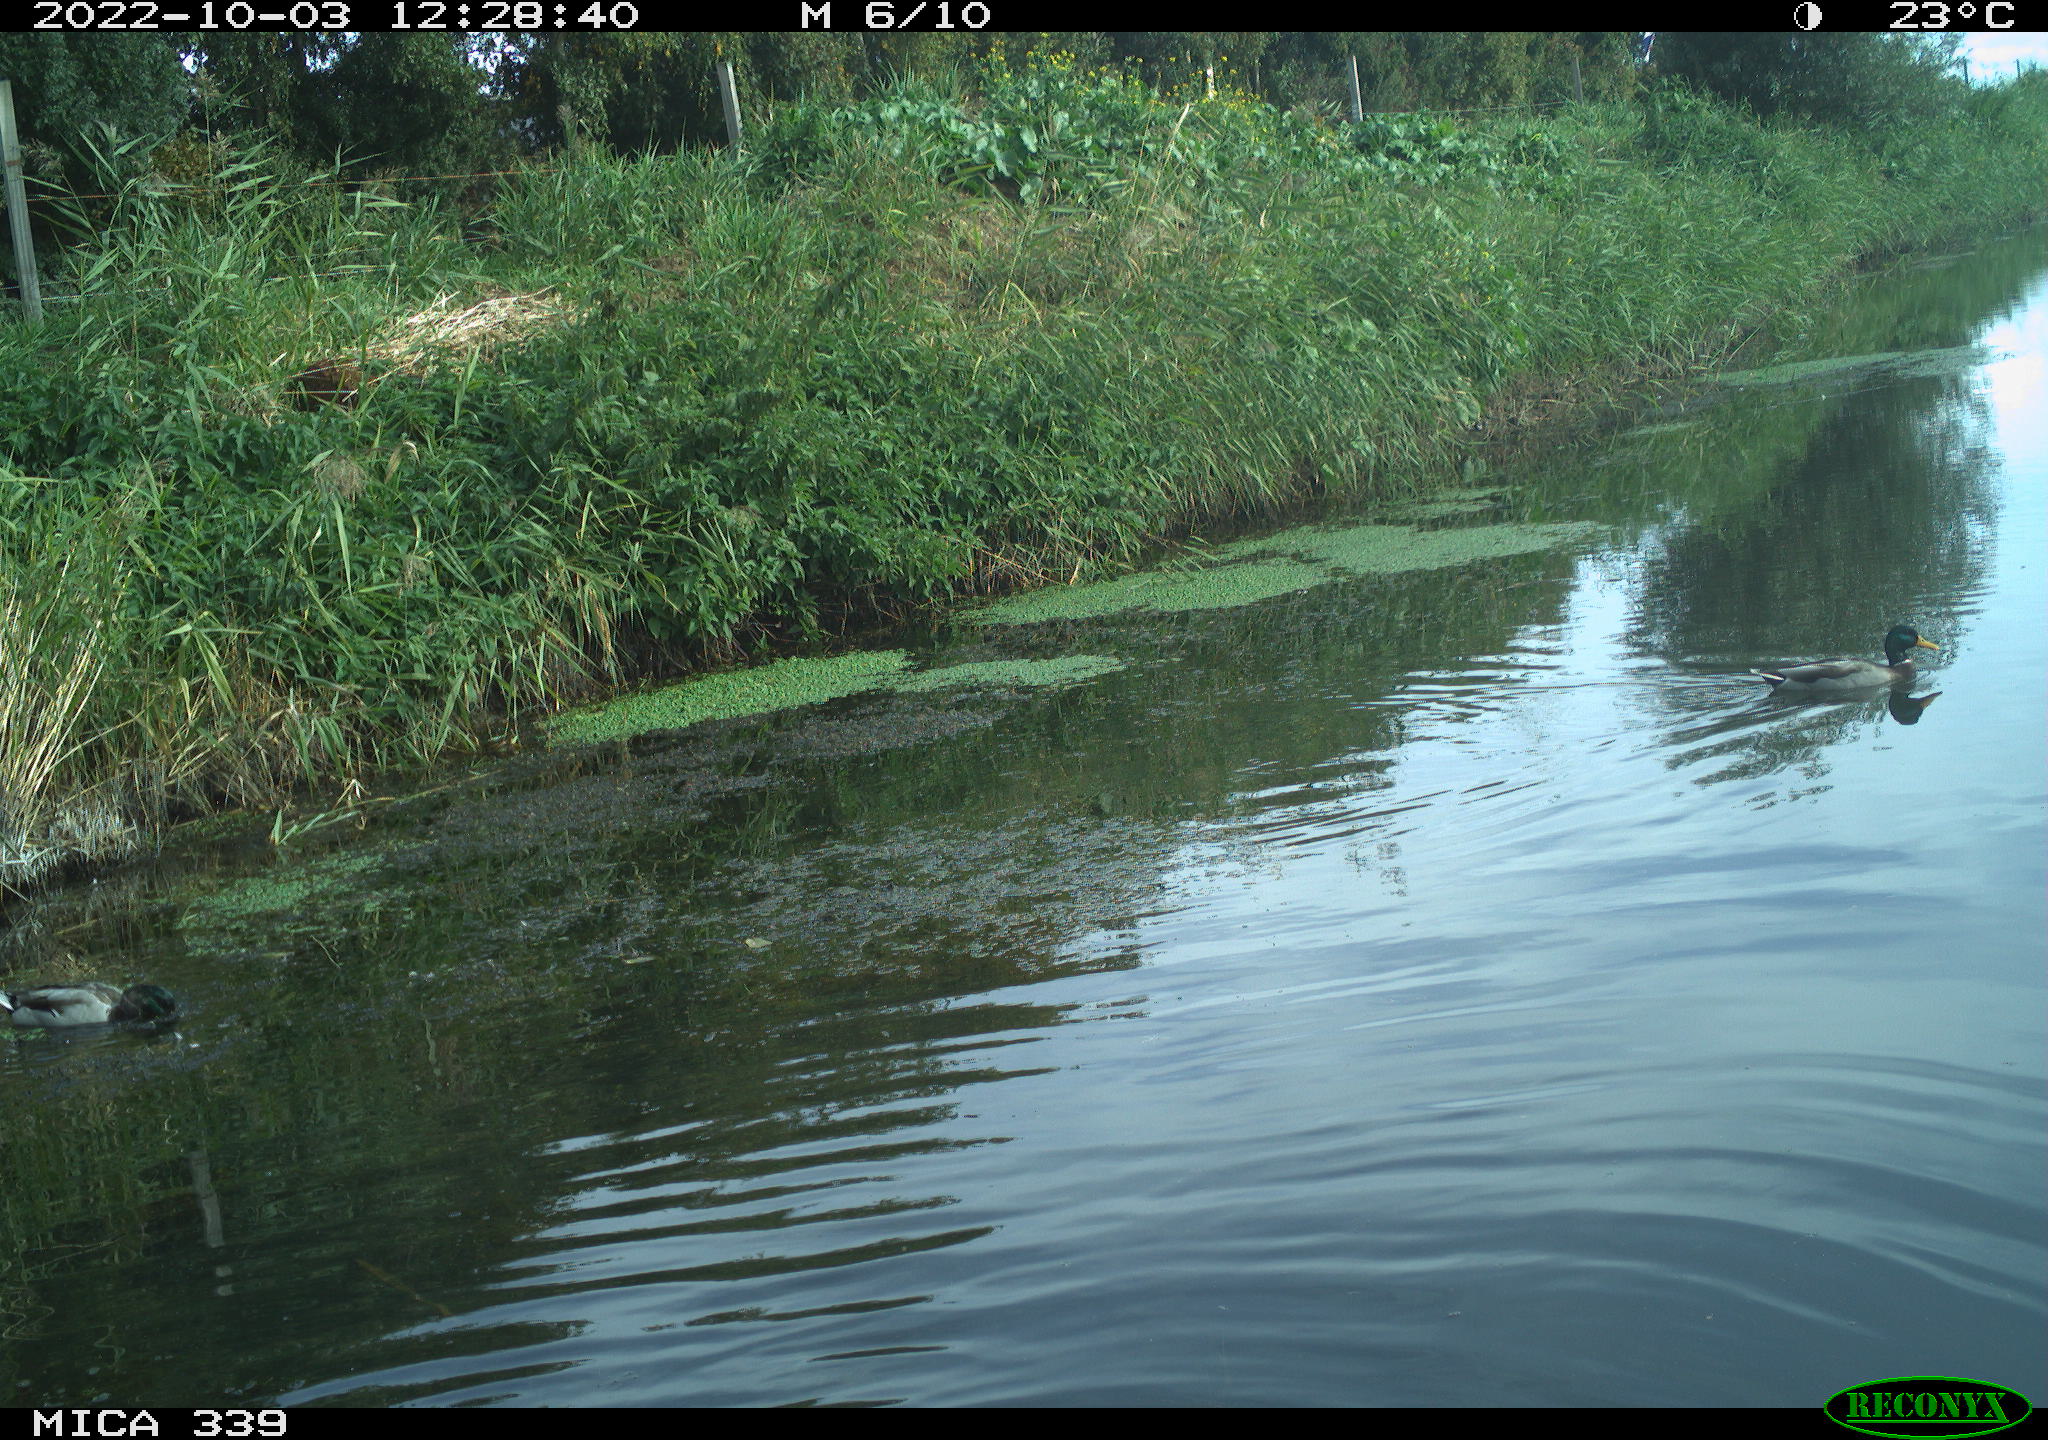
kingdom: Animalia
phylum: Chordata
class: Aves
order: Anseriformes
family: Anatidae
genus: Anas
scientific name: Anas platyrhynchos
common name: Mallard
